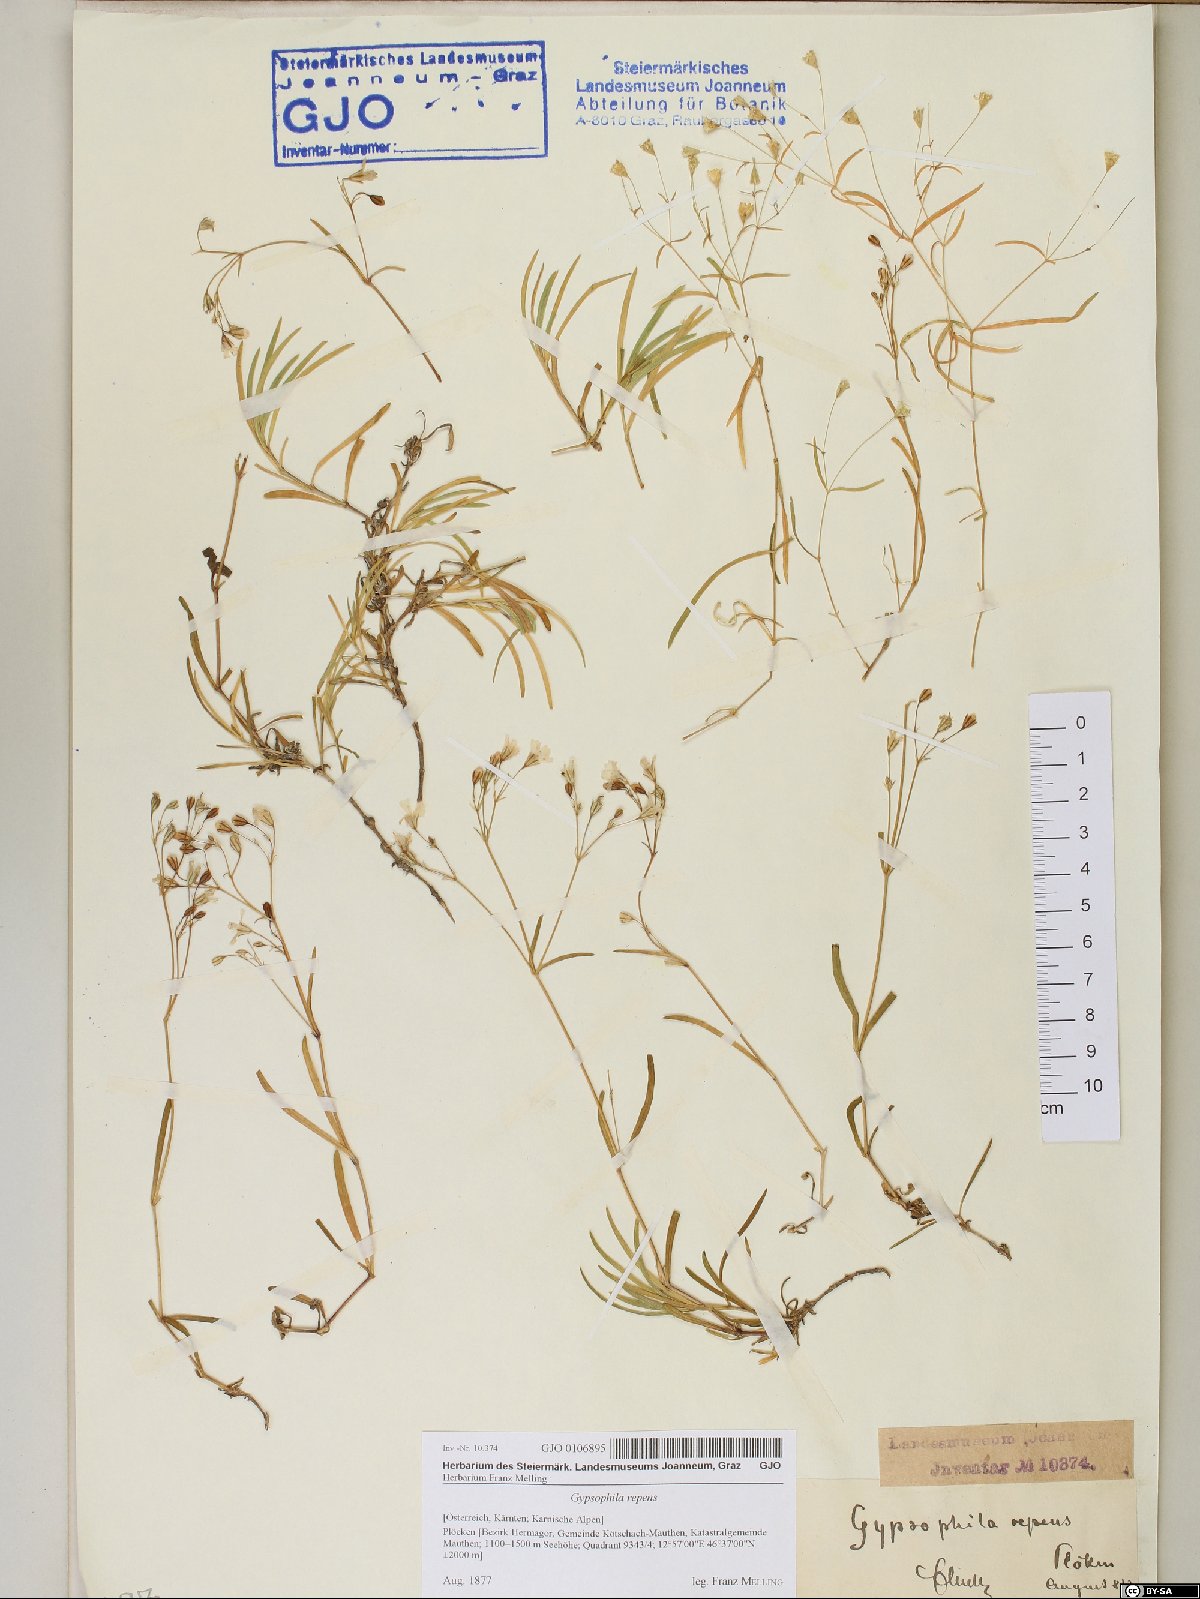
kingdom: Plantae
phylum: Tracheophyta
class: Magnoliopsida
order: Caryophyllales
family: Caryophyllaceae
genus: Gypsophila
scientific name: Gypsophila repens
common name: Creeping baby's-breath
